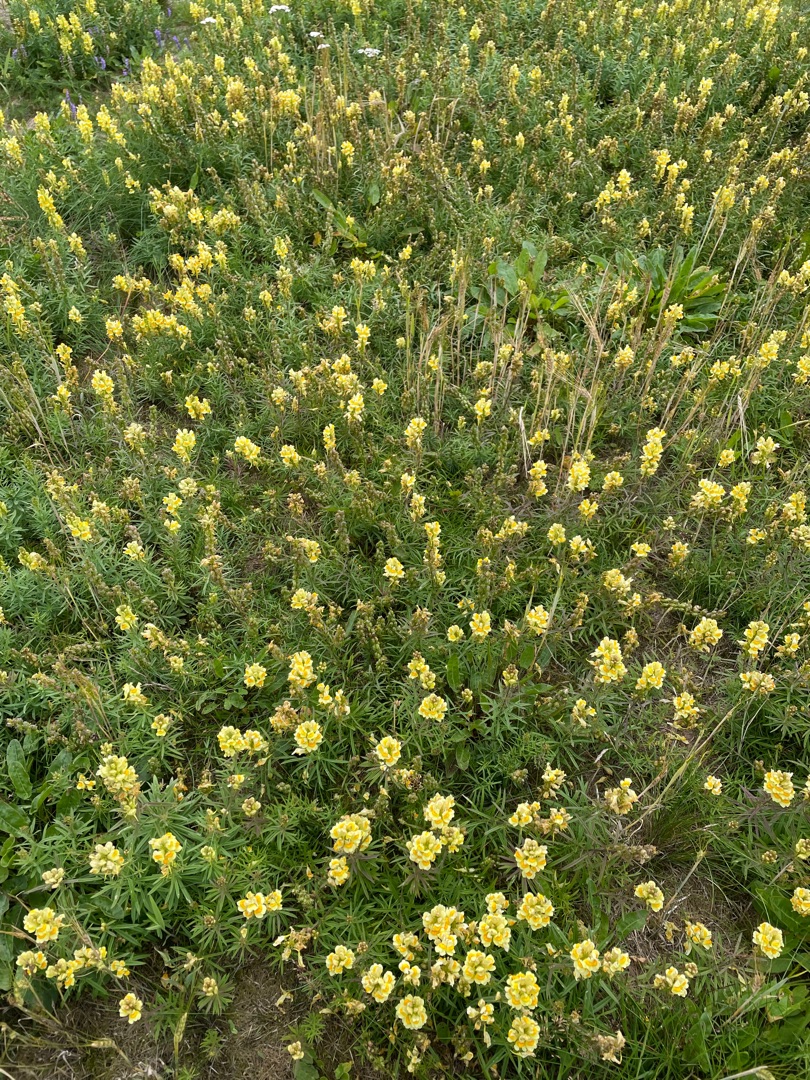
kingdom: Plantae
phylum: Tracheophyta
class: Magnoliopsida
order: Lamiales
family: Plantaginaceae
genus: Linaria
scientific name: Linaria vulgaris
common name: Almindelig torskemund
